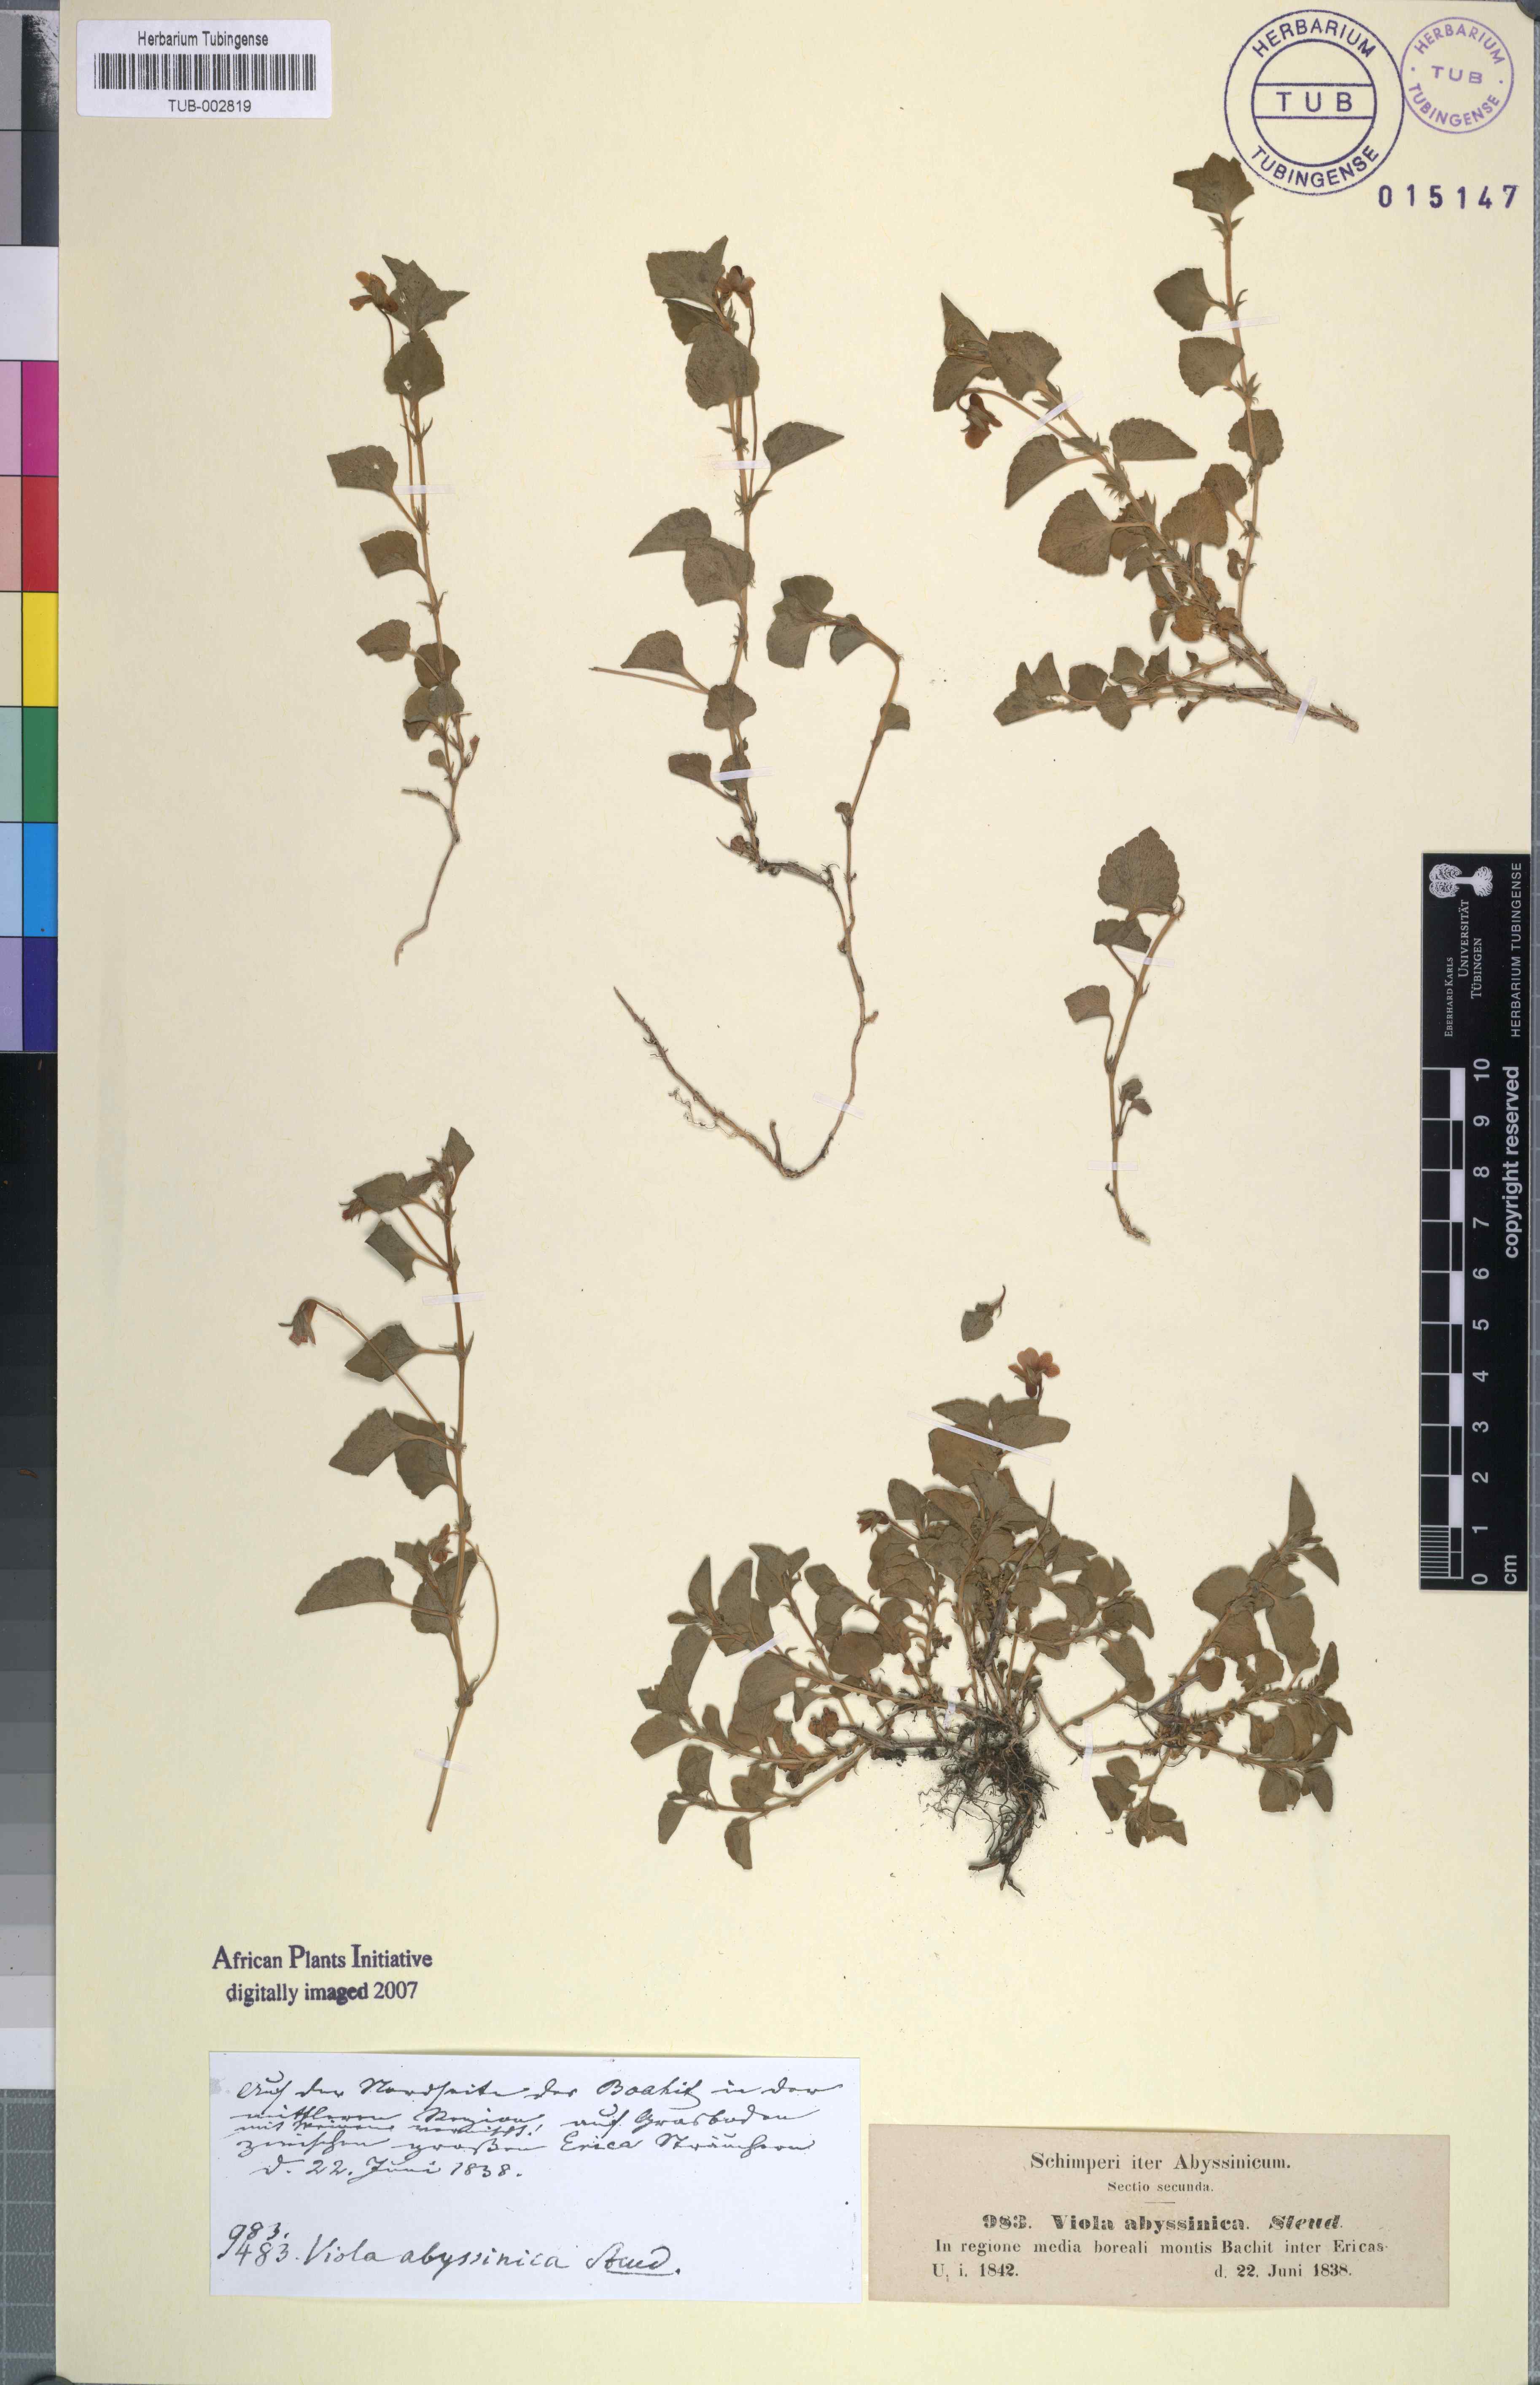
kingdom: Plantae
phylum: Tracheophyta
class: Magnoliopsida
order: Malpighiales
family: Violaceae
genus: Viola
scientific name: Viola abyssinica
